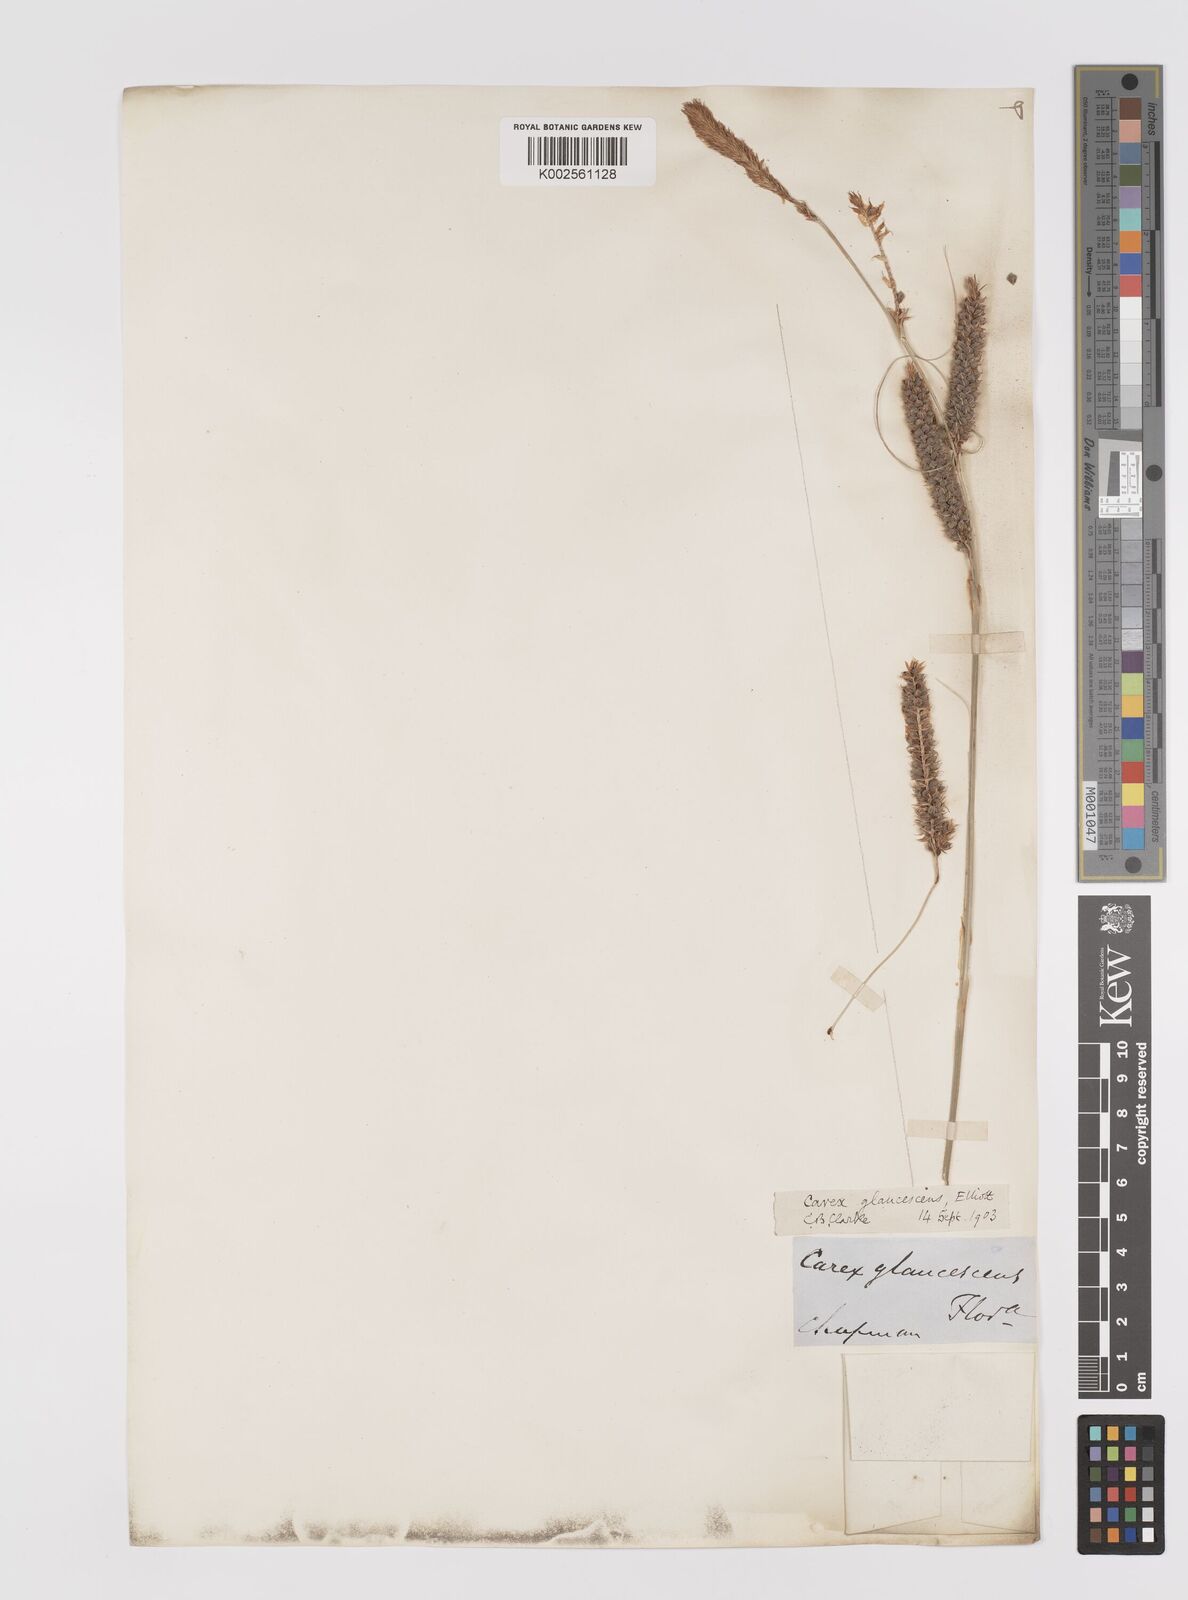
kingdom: Plantae
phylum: Tracheophyta
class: Liliopsida
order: Poales
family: Cyperaceae
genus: Carex
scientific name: Carex glaucescens
